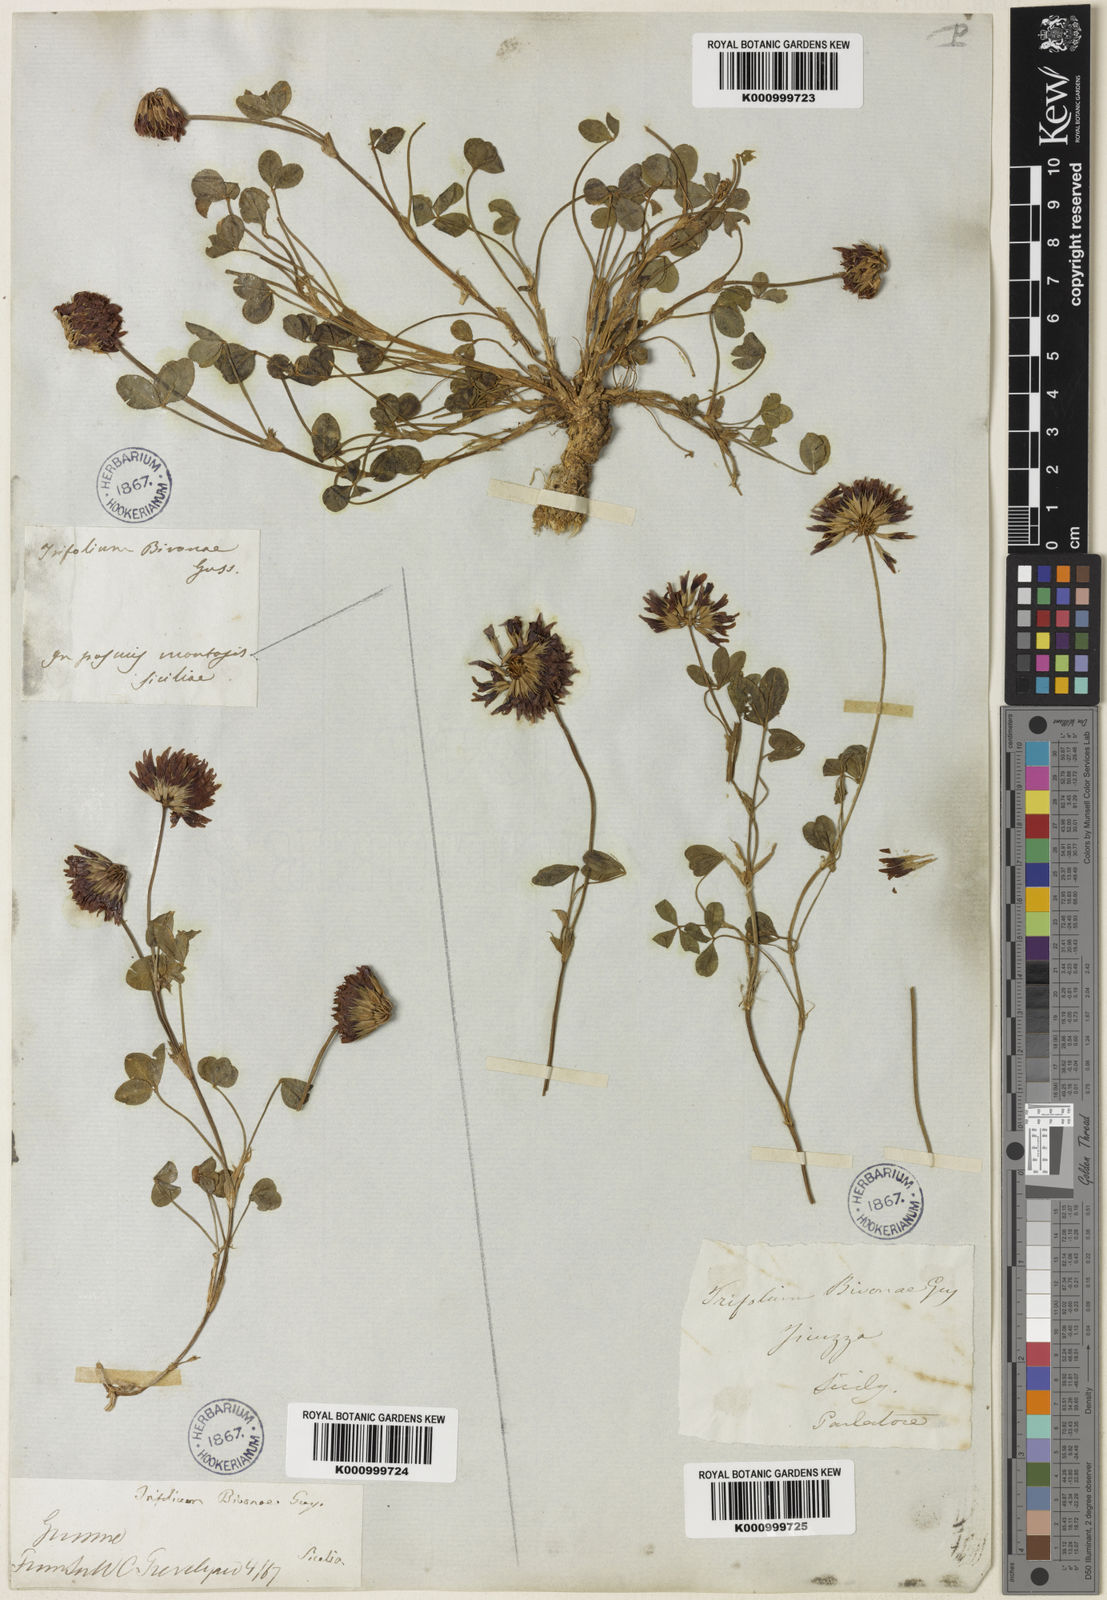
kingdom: Plantae
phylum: Tracheophyta
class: Magnoliopsida
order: Fabales
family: Fabaceae
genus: Trifolium
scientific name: Trifolium bivonae
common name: Bivona clover
